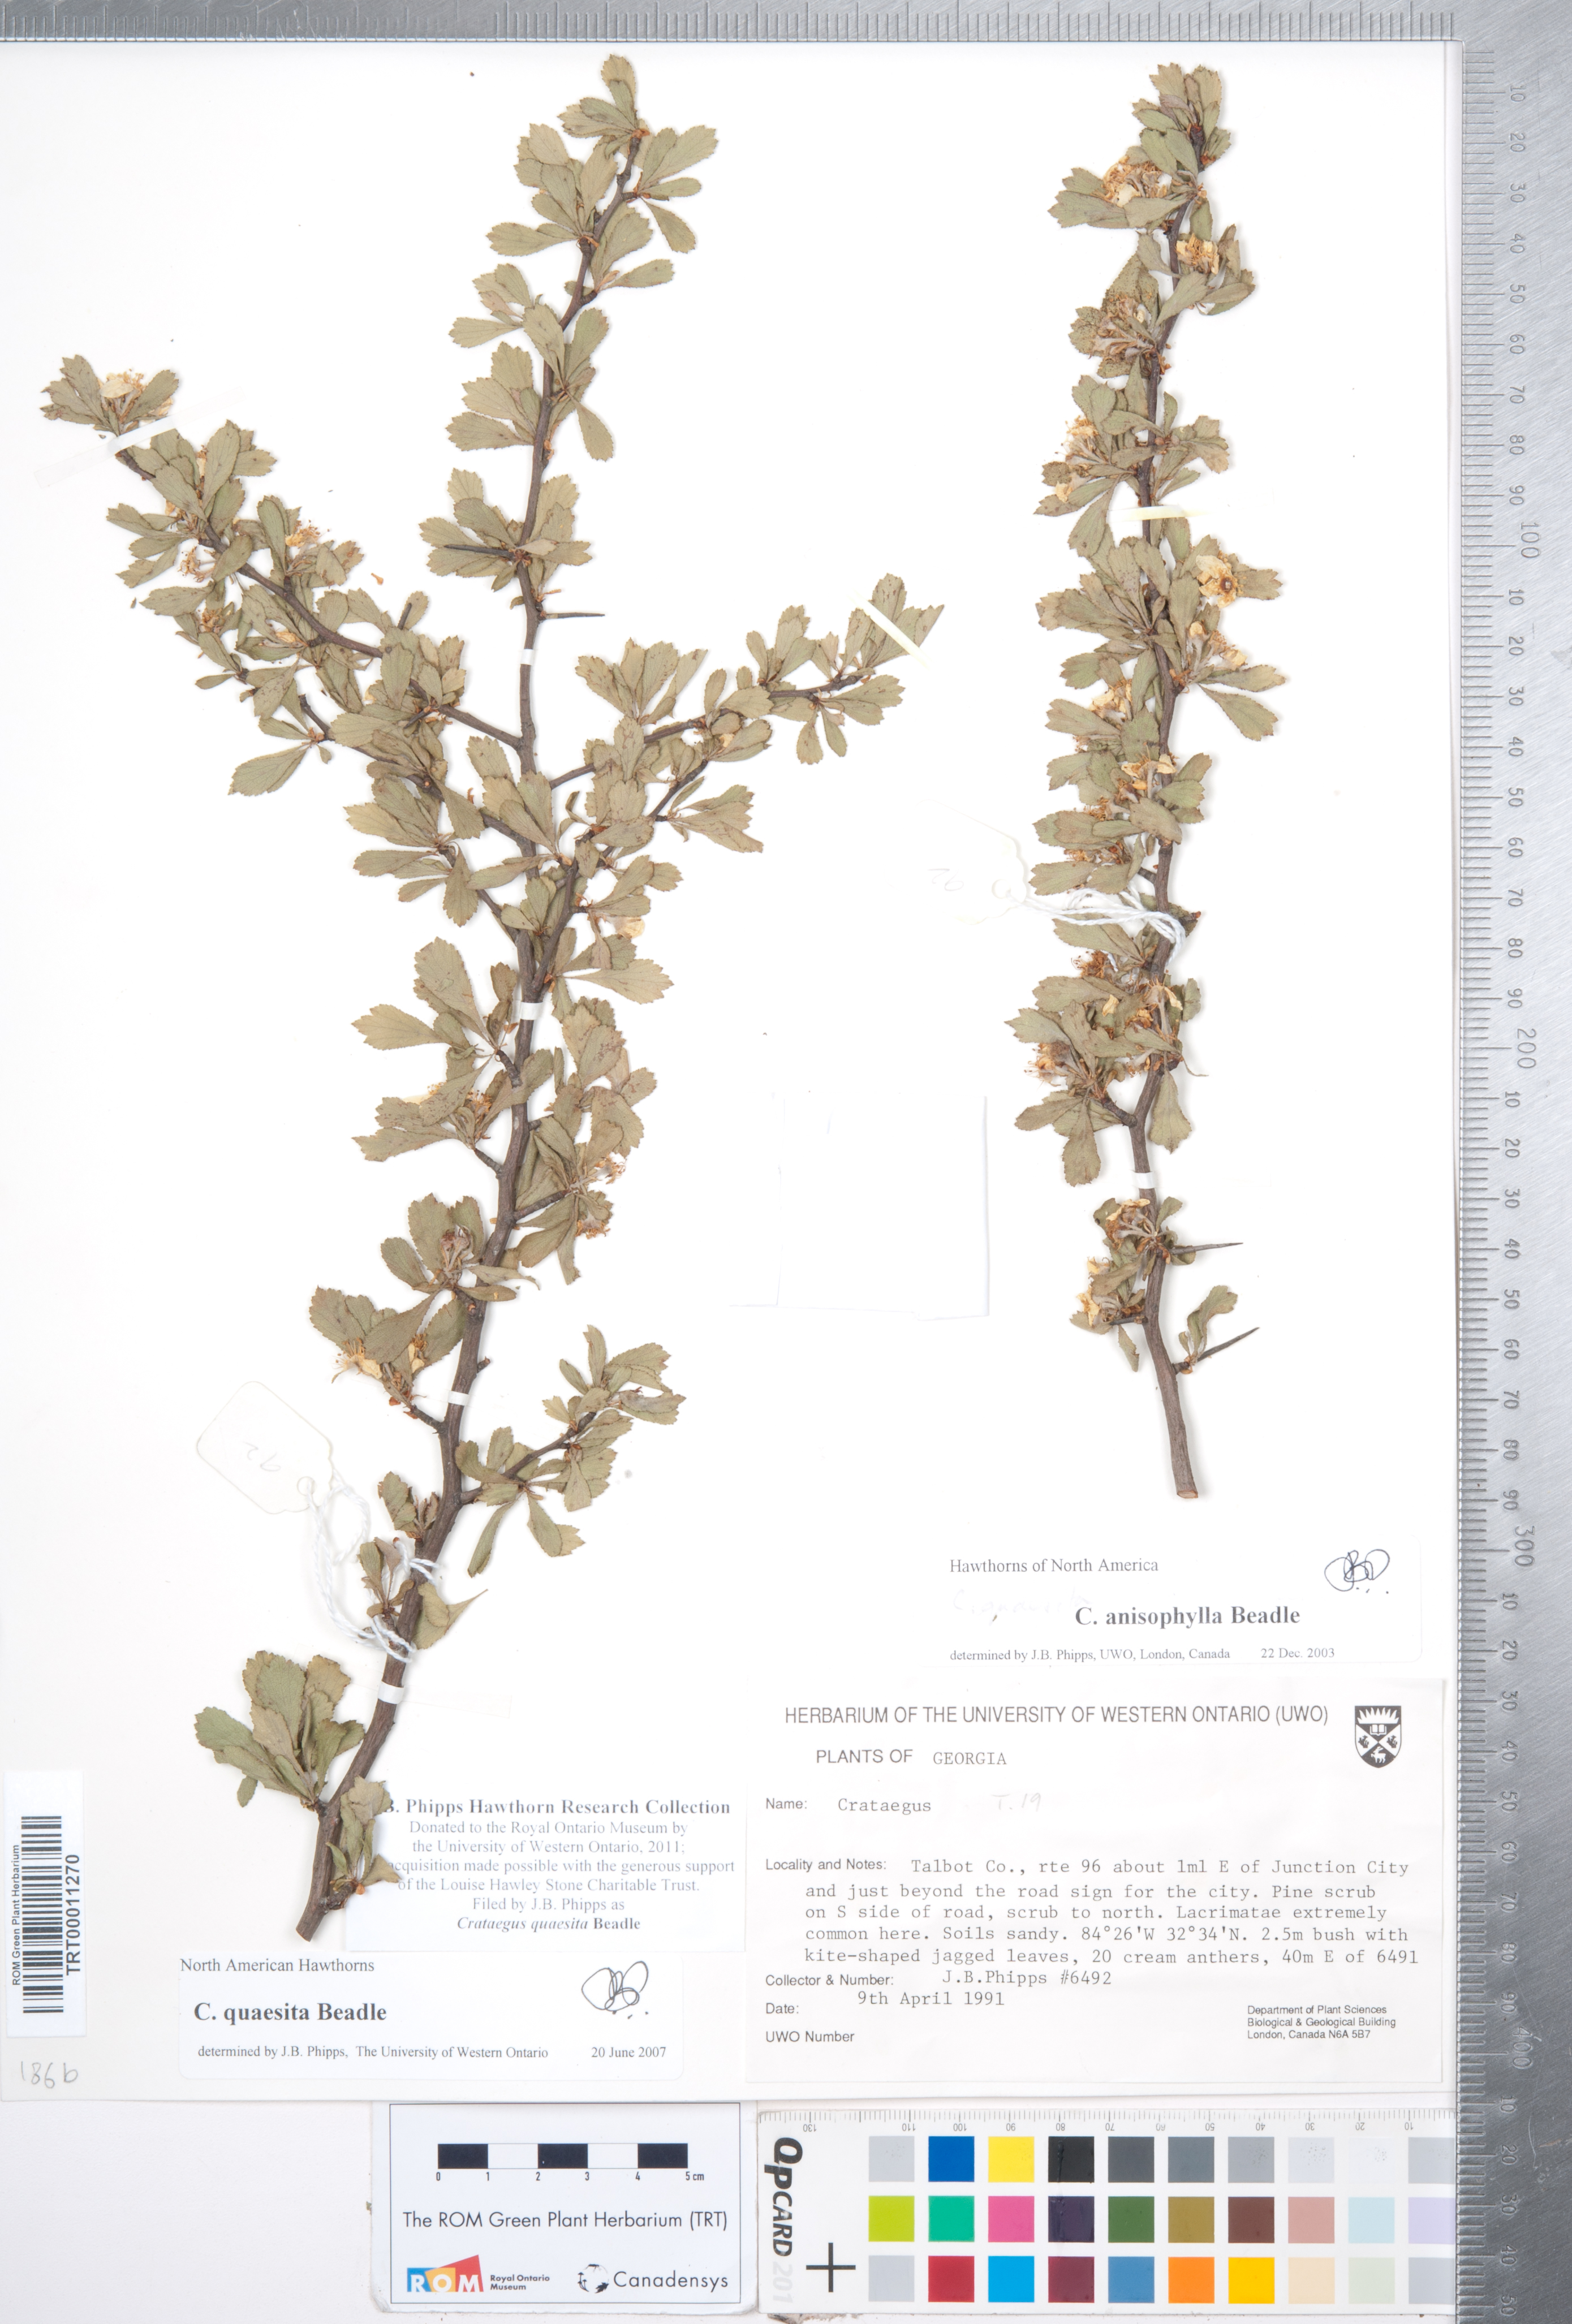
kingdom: Plantae
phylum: Tracheophyta
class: Magnoliopsida
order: Rosales
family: Rosaceae
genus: Crataegus
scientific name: Crataegus senta
